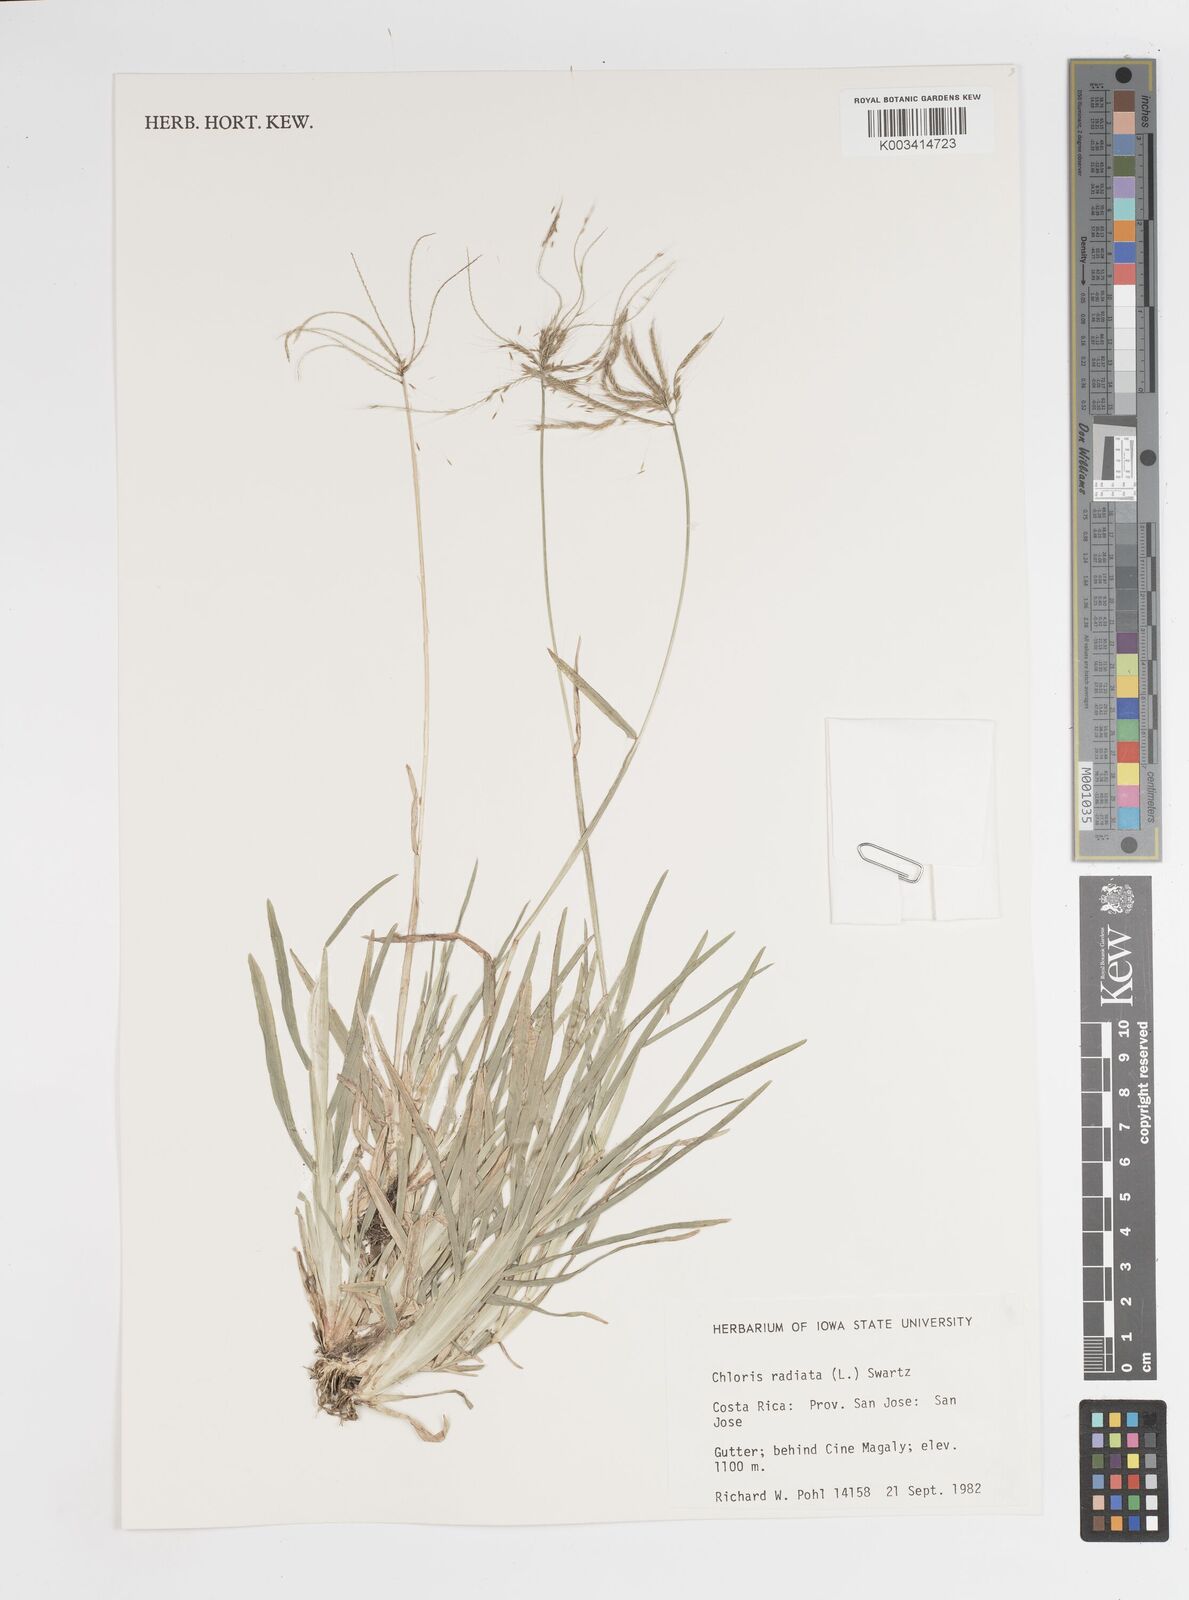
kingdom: Plantae
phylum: Tracheophyta
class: Liliopsida
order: Poales
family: Poaceae
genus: Chloris
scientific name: Chloris radiata
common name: Radiate fingergrass
